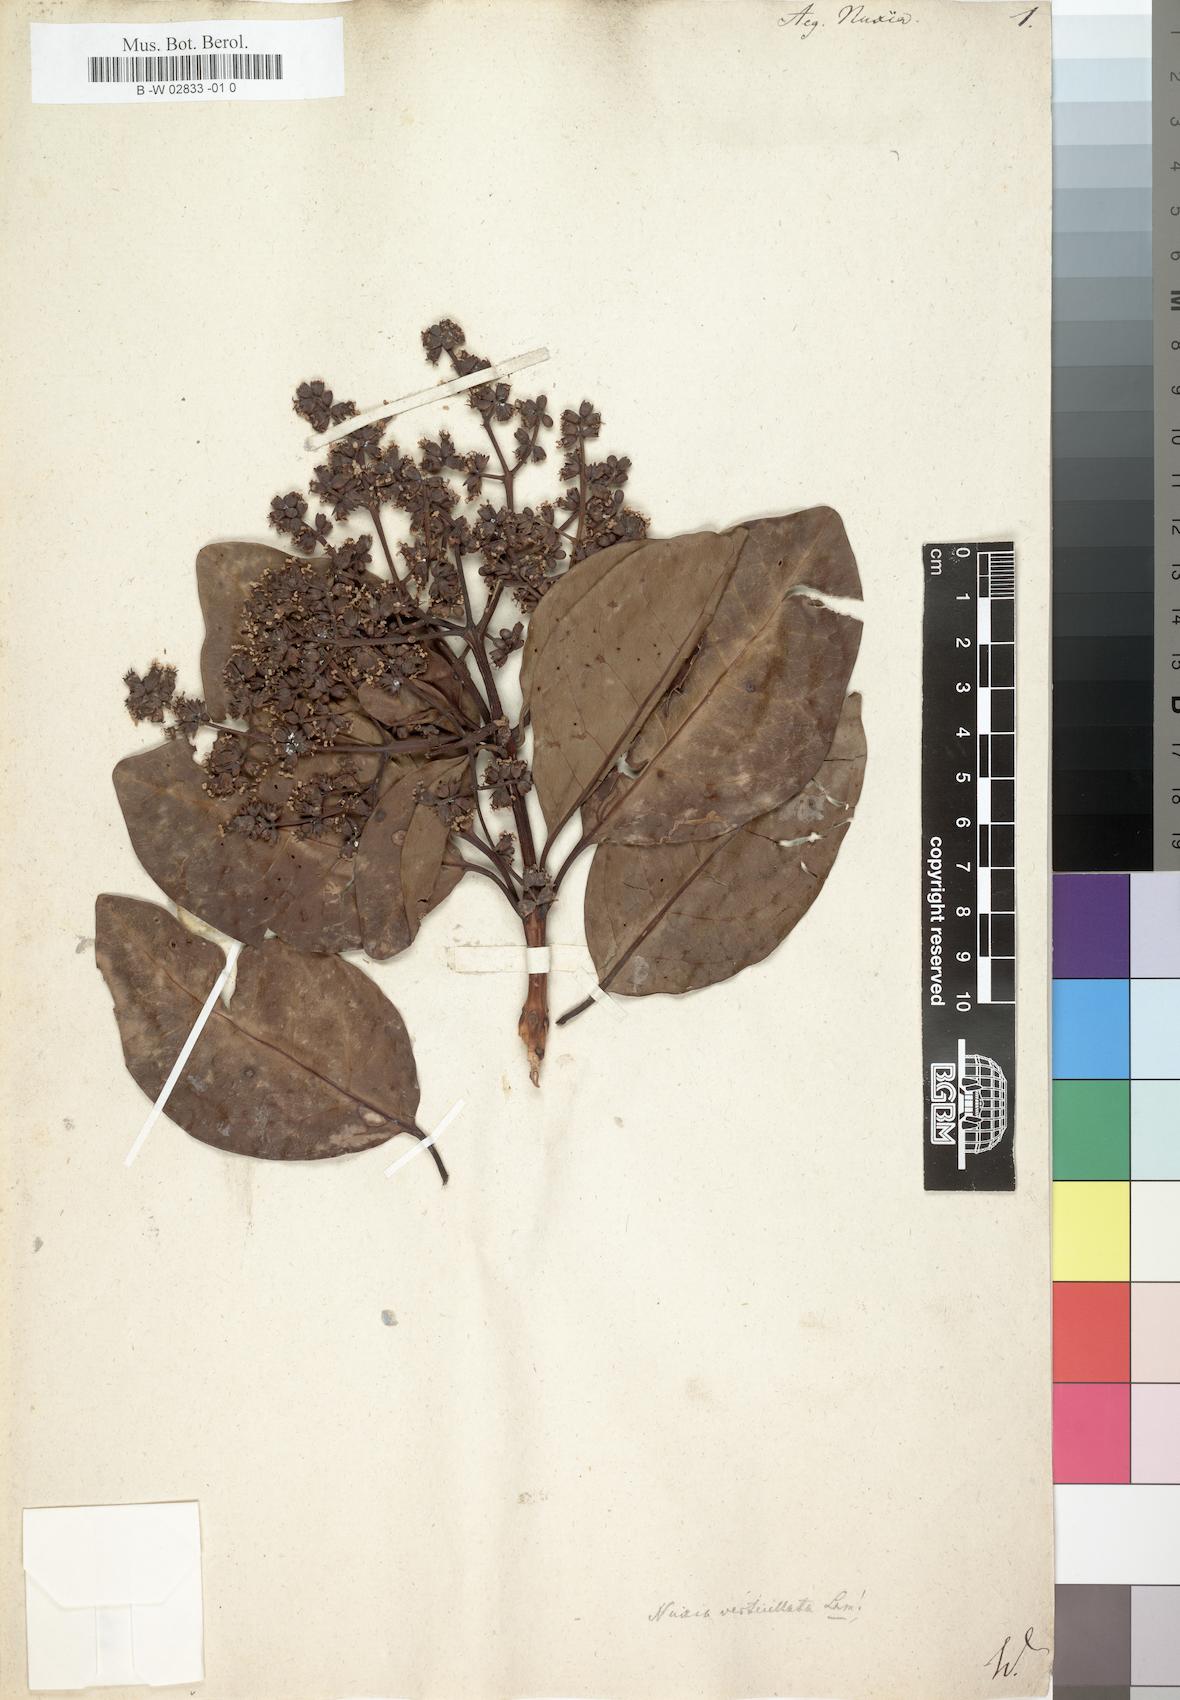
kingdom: Plantae
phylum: Tracheophyta
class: Magnoliopsida
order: Lamiales
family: Stilbaceae
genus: Nuxia
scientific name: Nuxia verticillata
